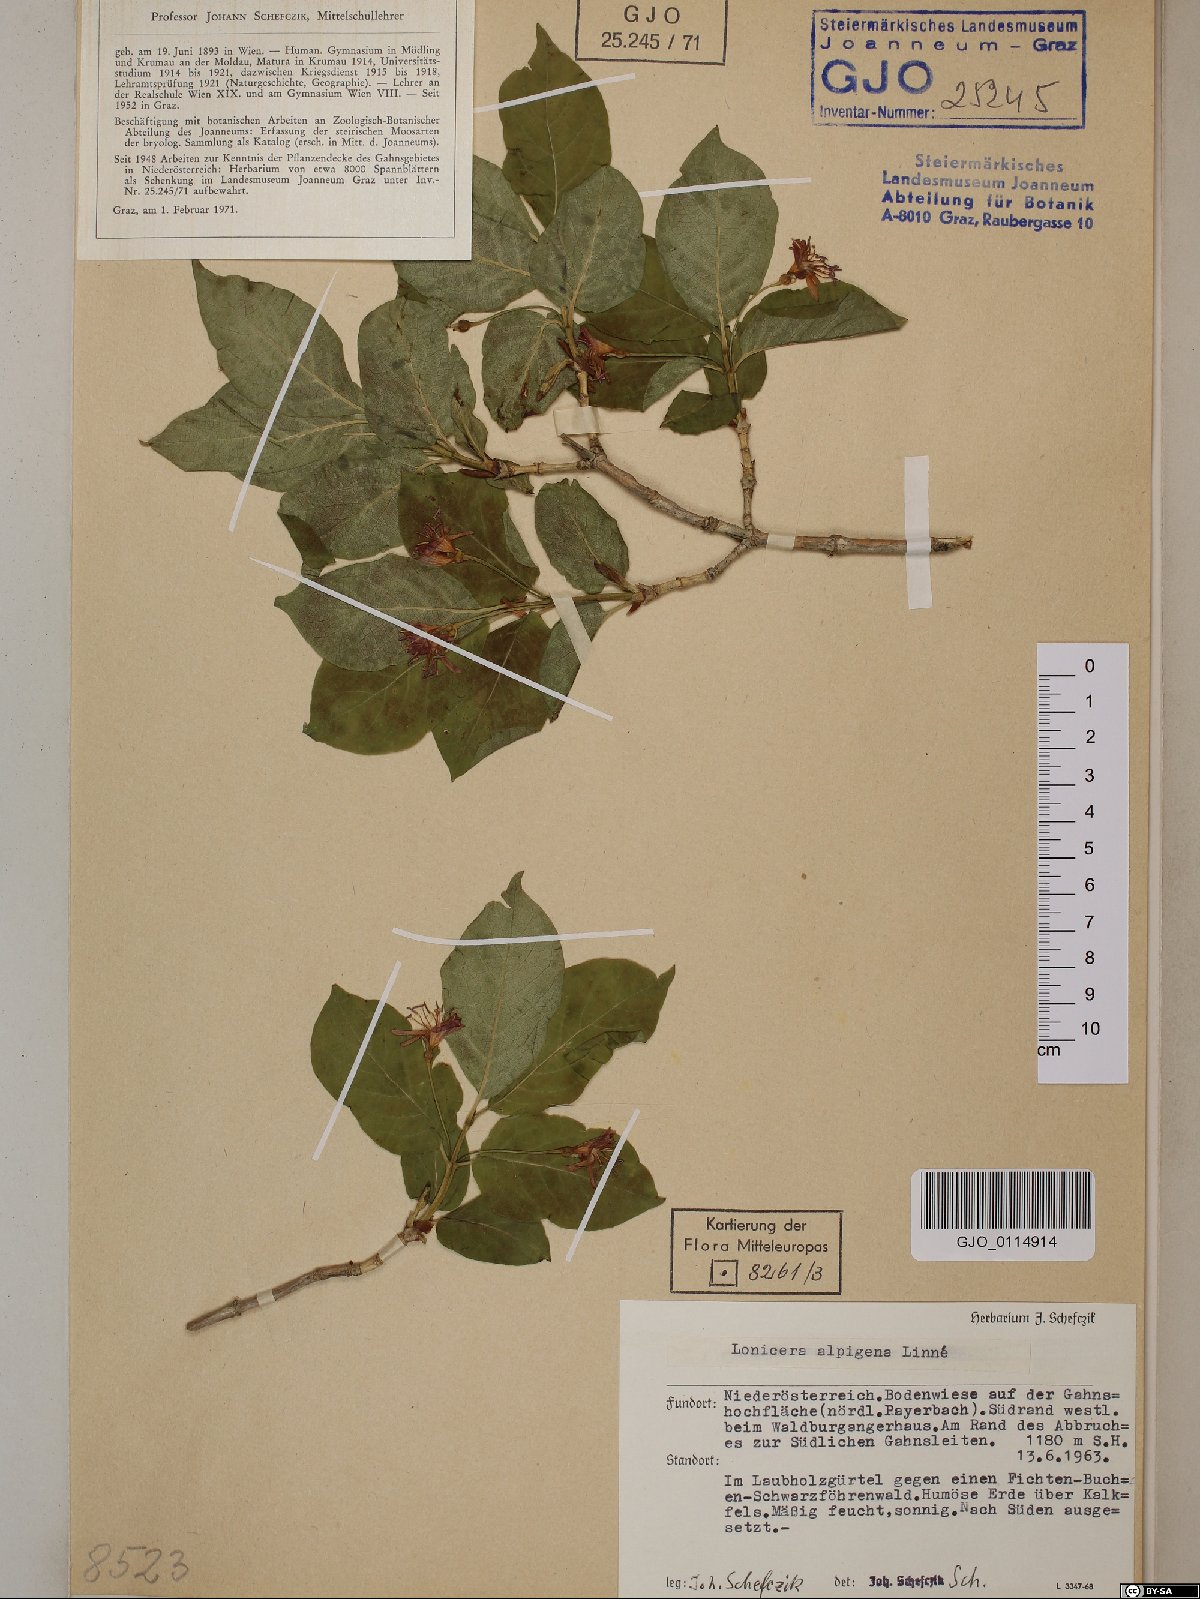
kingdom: Plantae
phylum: Tracheophyta
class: Magnoliopsida
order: Dipsacales
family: Caprifoliaceae
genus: Lonicera
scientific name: Lonicera alpigena
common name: Alpine honeysuckle
